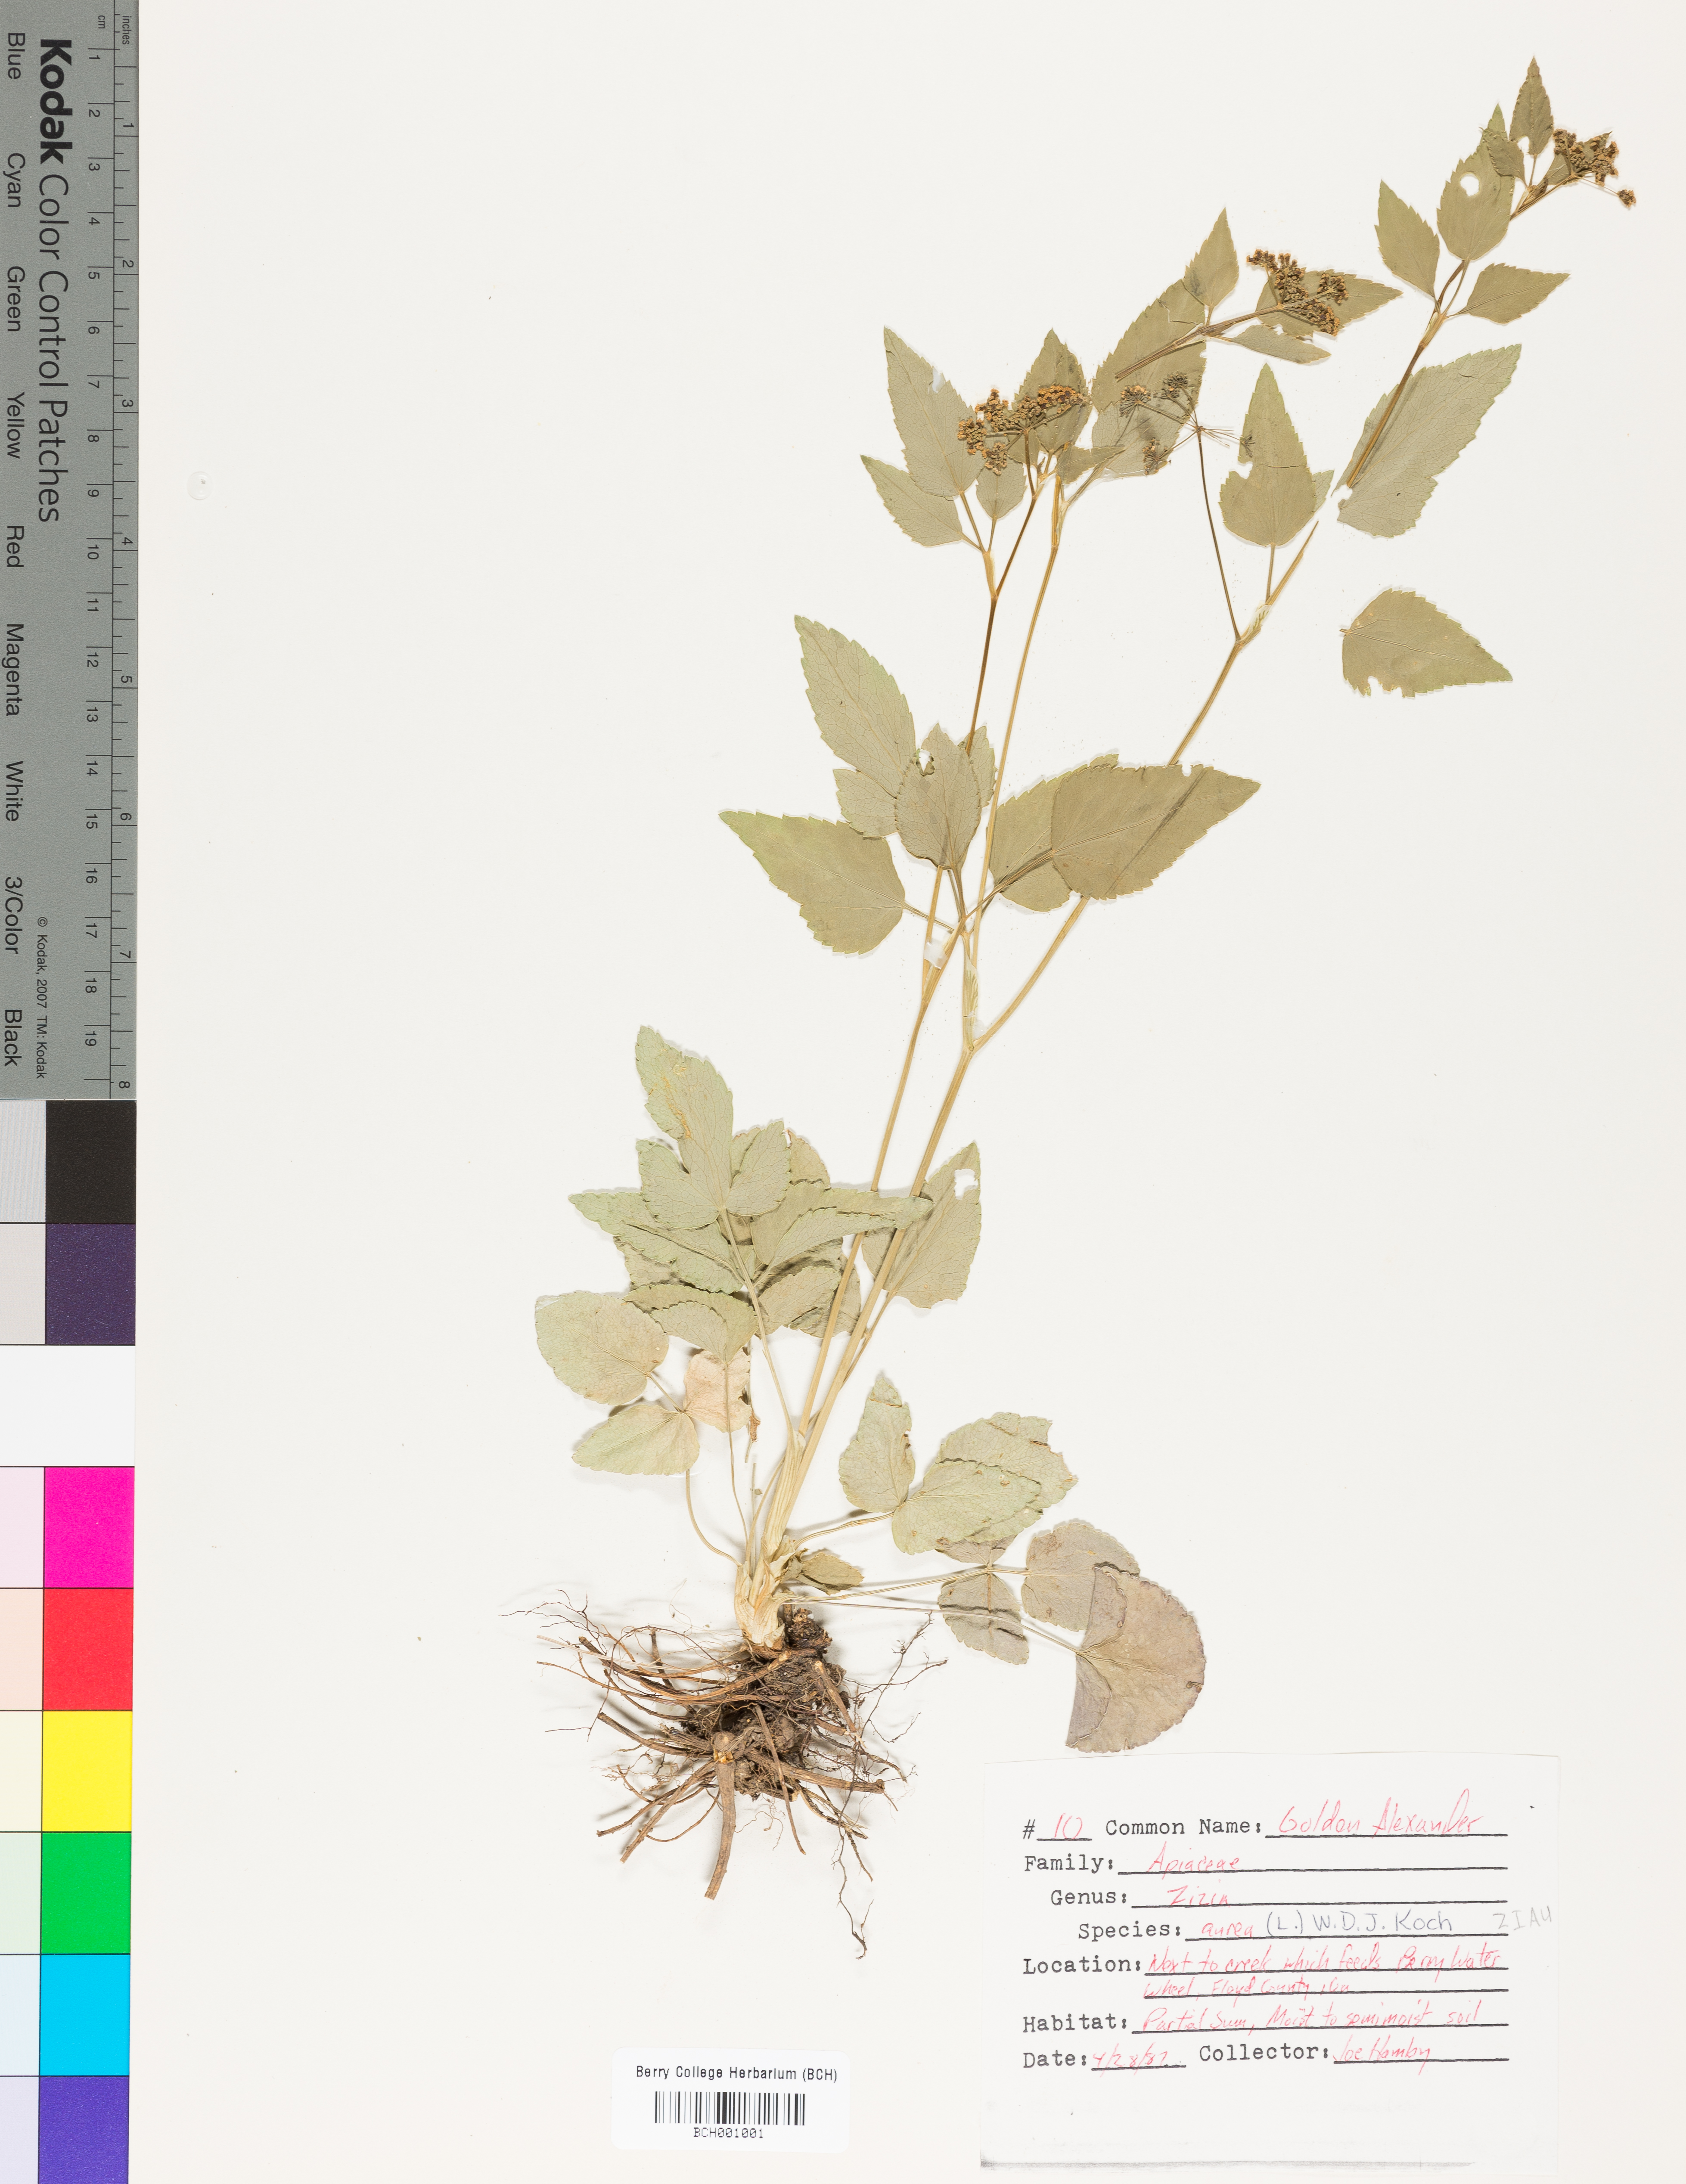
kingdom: Plantae
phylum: Tracheophyta
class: Magnoliopsida
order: Apiales
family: Apiaceae
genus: Zizia
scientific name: Zizia aurea
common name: Golden alexanders
